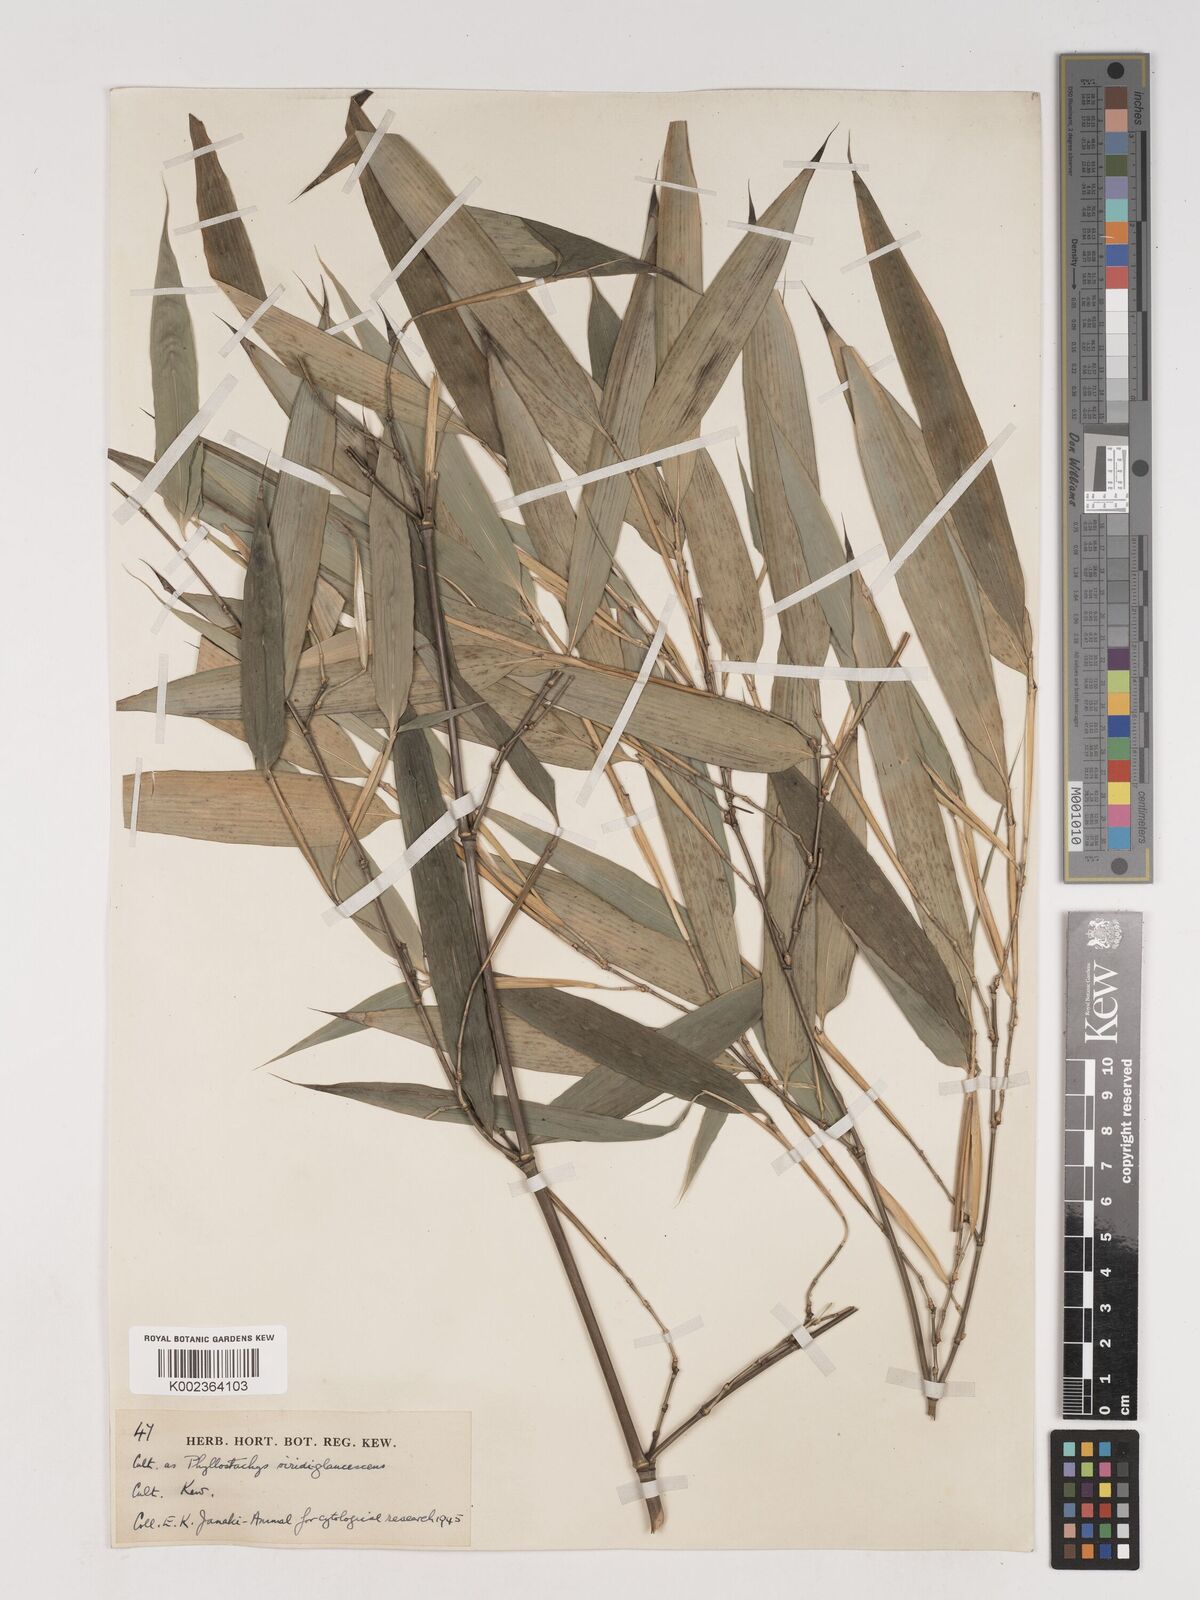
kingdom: Plantae
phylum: Tracheophyta
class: Liliopsida
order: Poales
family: Poaceae
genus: Phyllostachys
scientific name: Phyllostachys viridiglaucescens
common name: Greenwax golden bamboo
